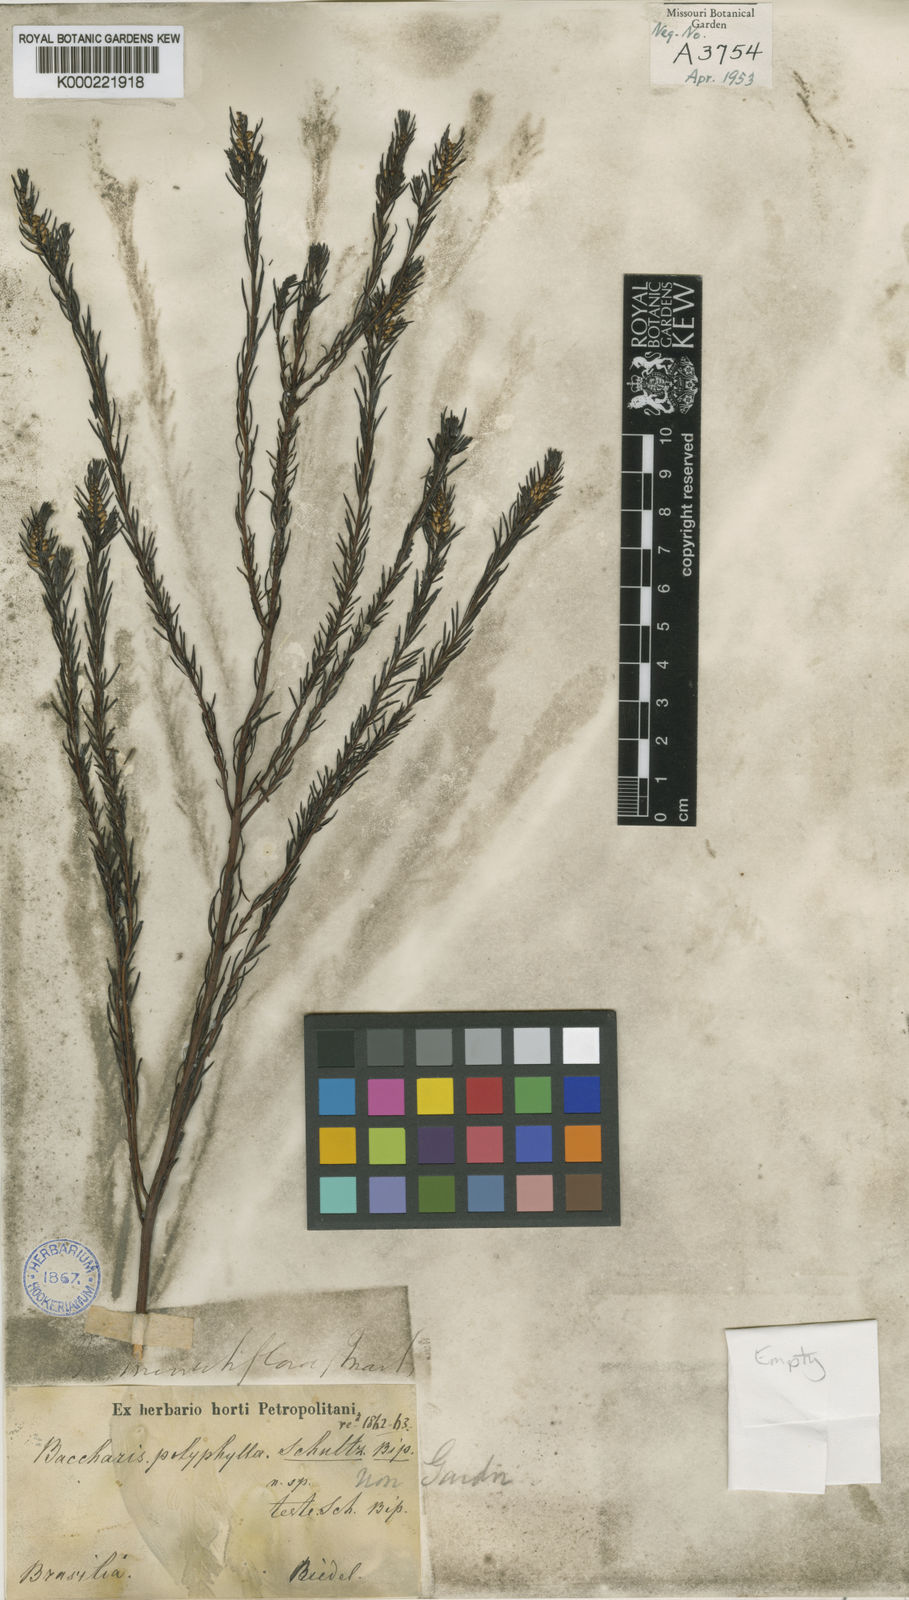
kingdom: Plantae
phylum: Tracheophyta
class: Magnoliopsida
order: Asterales
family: Asteraceae
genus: Baccharis
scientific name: Baccharis minutiflora
